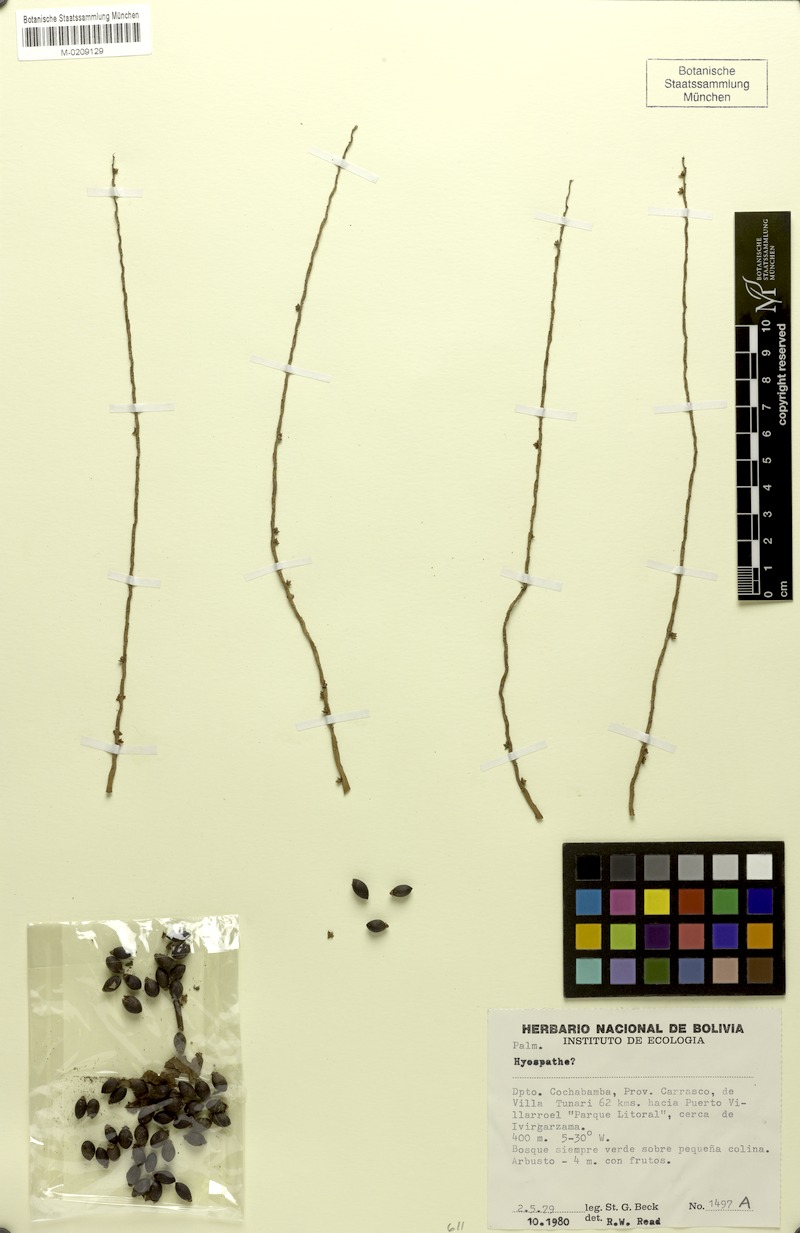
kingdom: Plantae
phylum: Tracheophyta
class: Liliopsida
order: Arecales
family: Arecaceae
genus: Hyospathe
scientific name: Hyospathe
